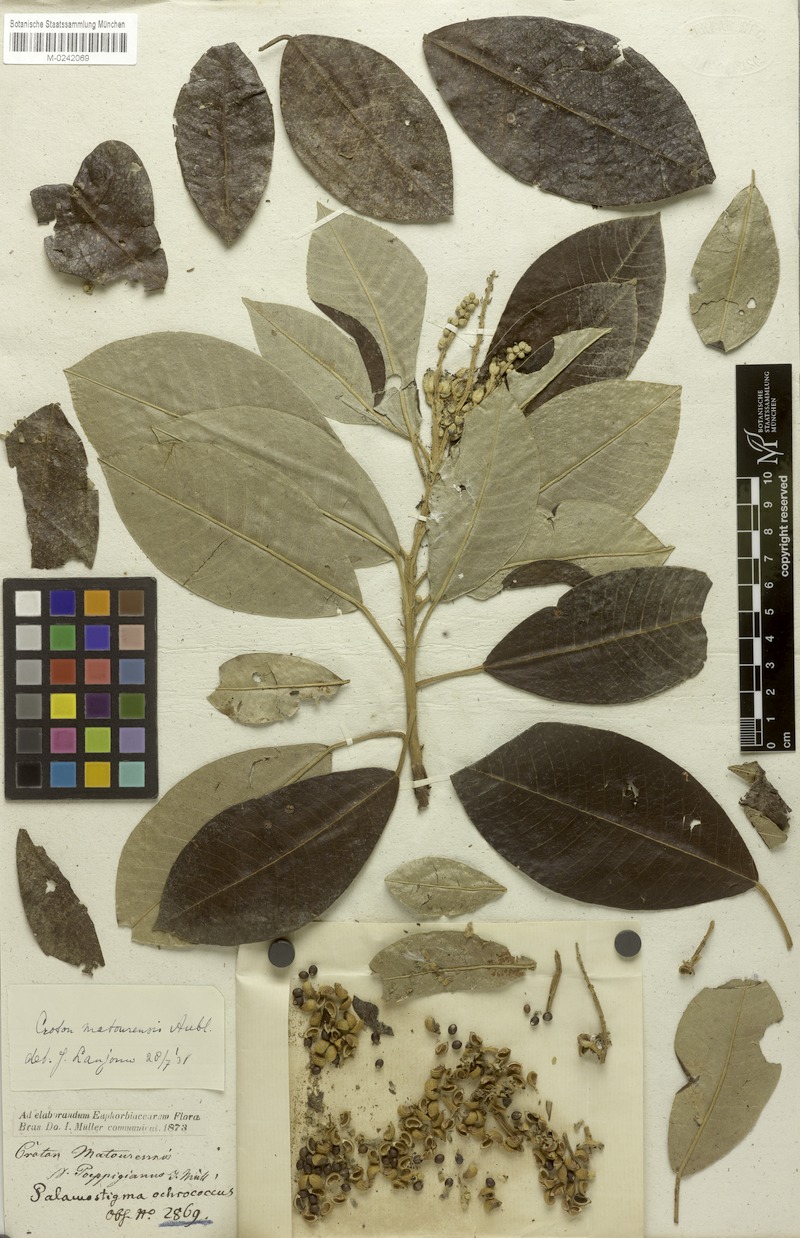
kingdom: Plantae
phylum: Tracheophyta
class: Magnoliopsida
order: Malpighiales
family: Euphorbiaceae
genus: Croton
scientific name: Croton matourensis
